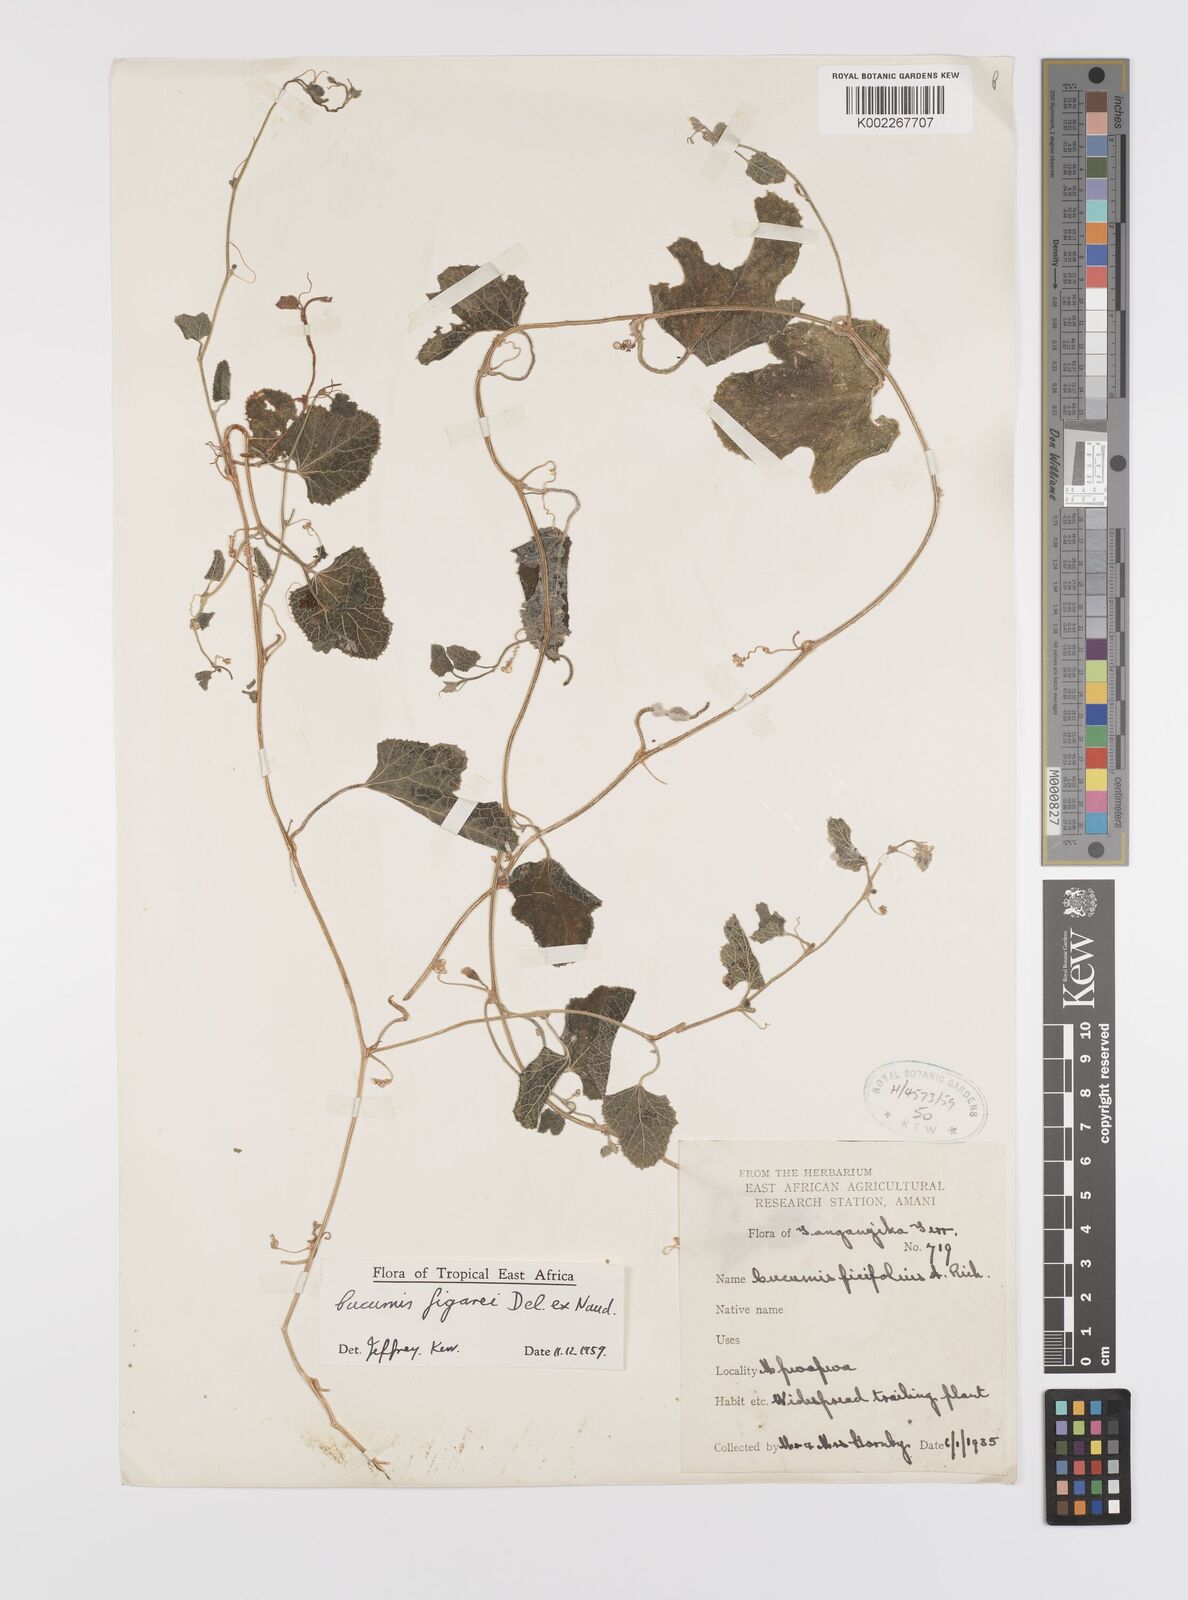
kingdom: Plantae
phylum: Tracheophyta
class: Magnoliopsida
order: Cucurbitales
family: Cucurbitaceae
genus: Cucumis
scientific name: Cucumis pustulatus
